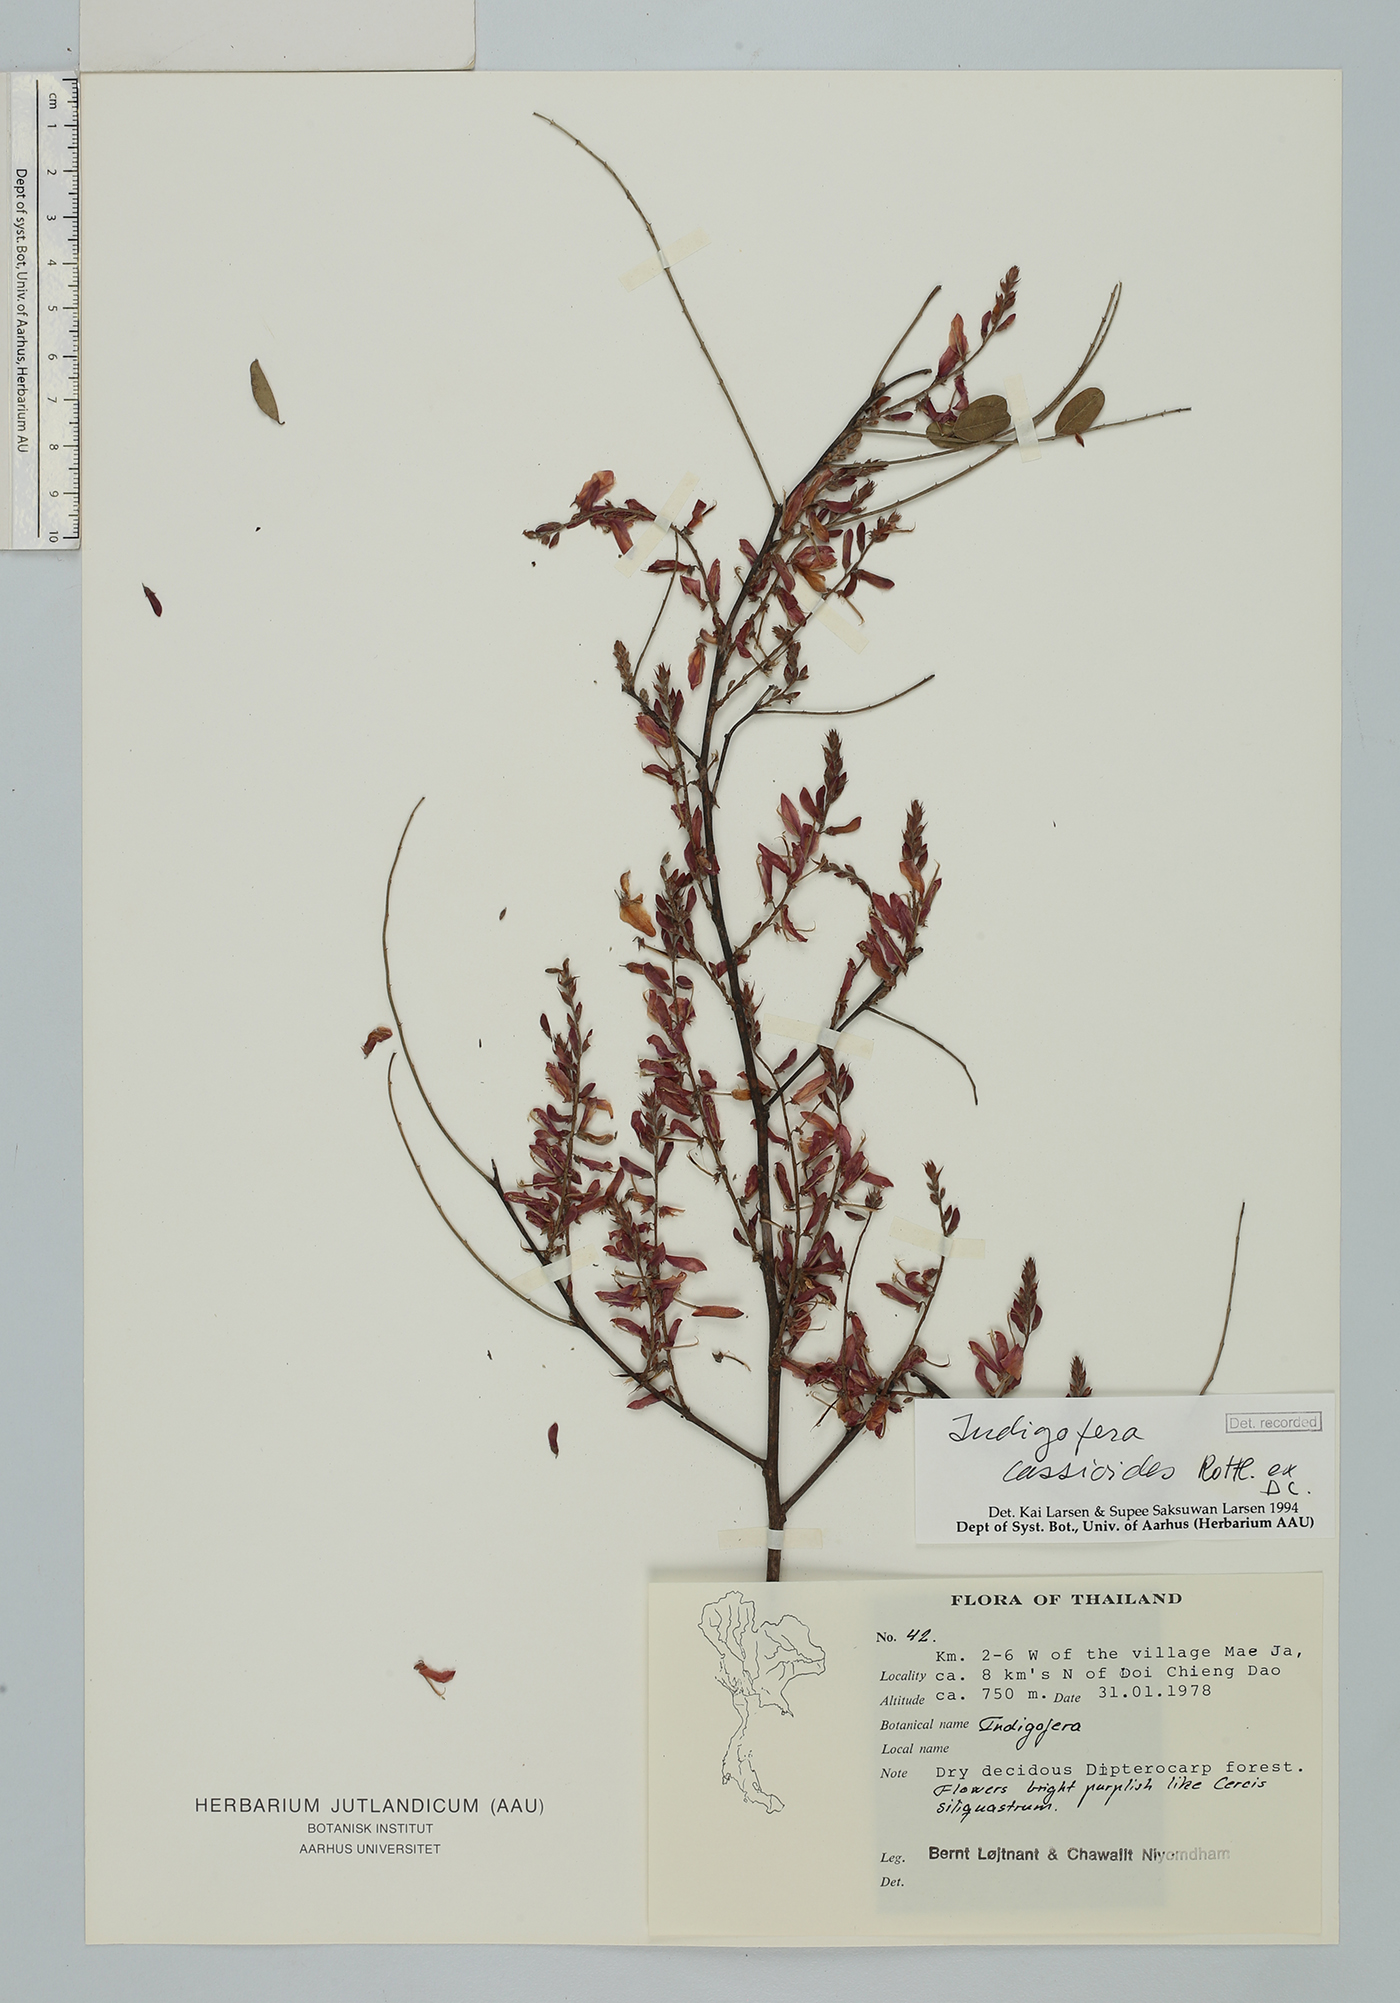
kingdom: Plantae
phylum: Tracheophyta
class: Magnoliopsida
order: Fabales
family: Fabaceae
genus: Indigofera
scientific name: Indigofera cassioides
